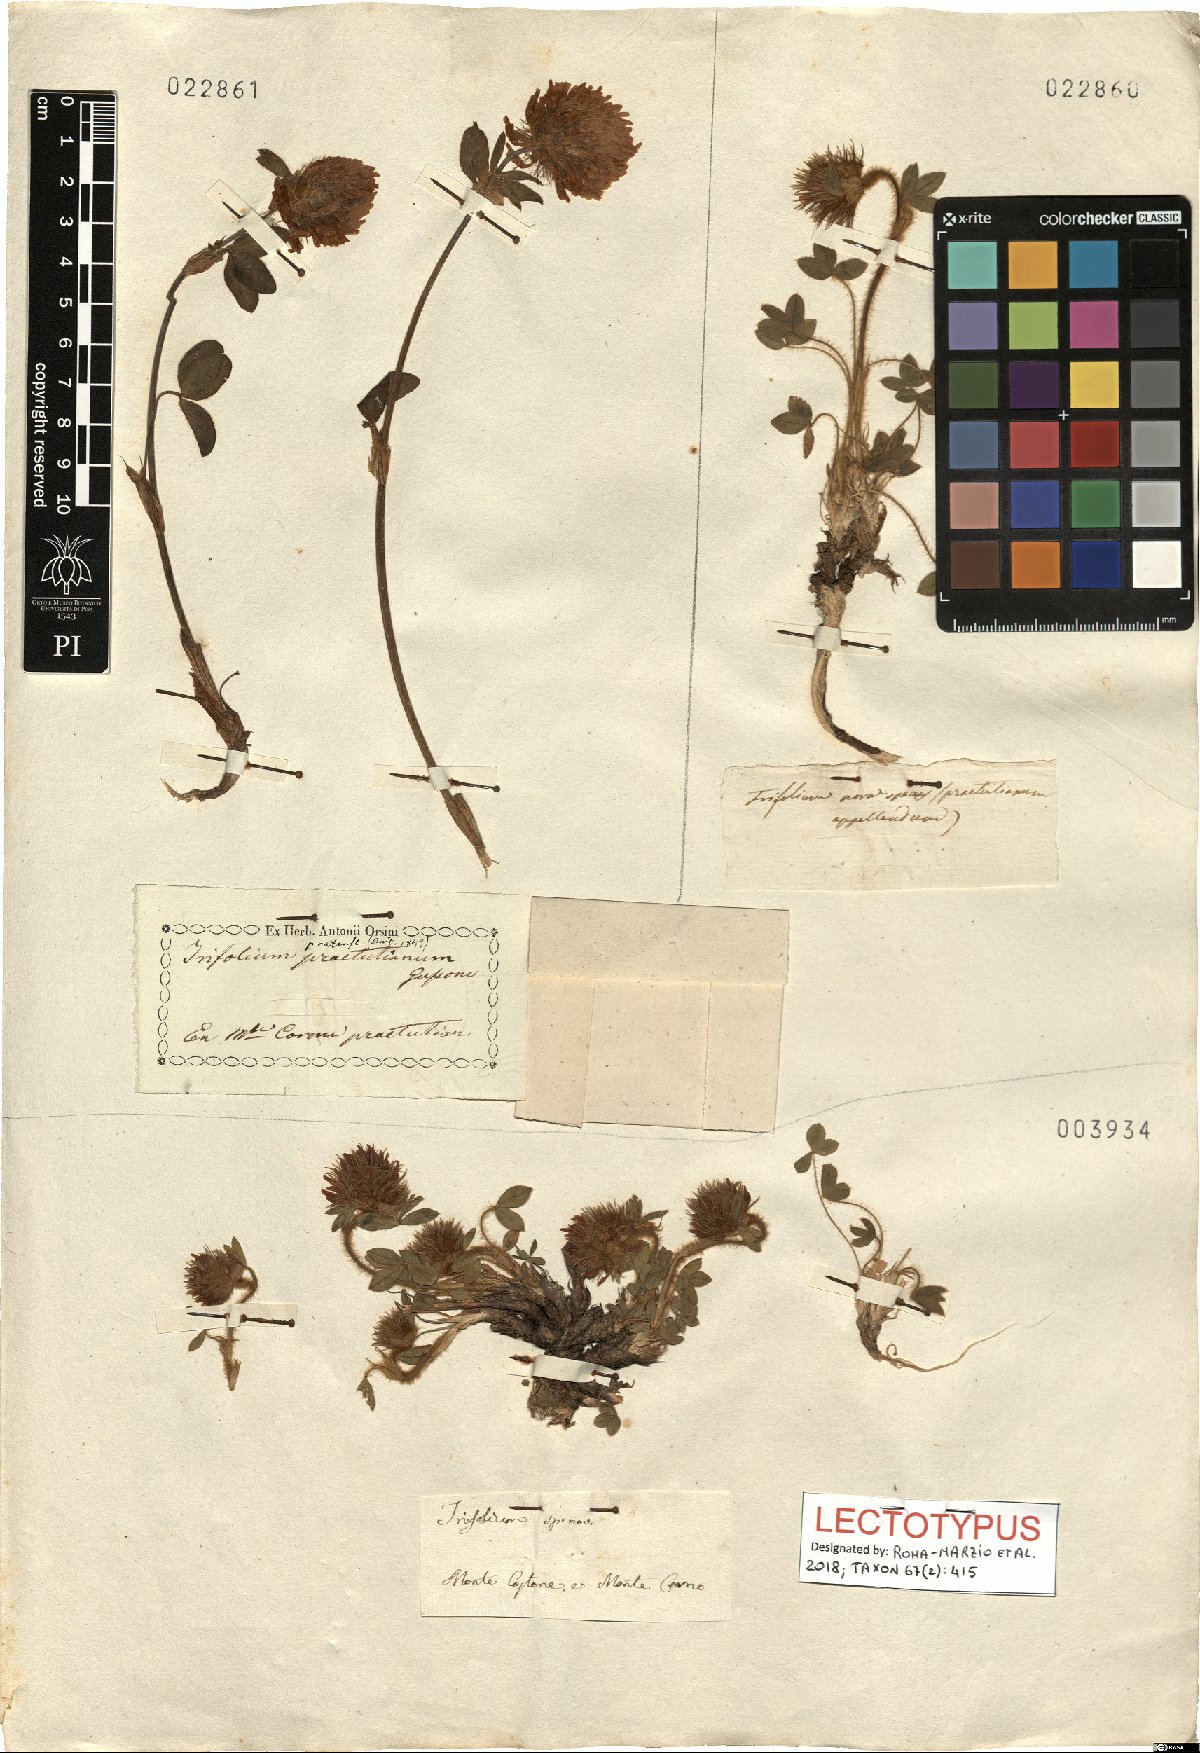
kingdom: Plantae
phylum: Tracheophyta
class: Magnoliopsida
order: Fabales
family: Fabaceae
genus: Trifolium
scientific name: Trifolium noricum
